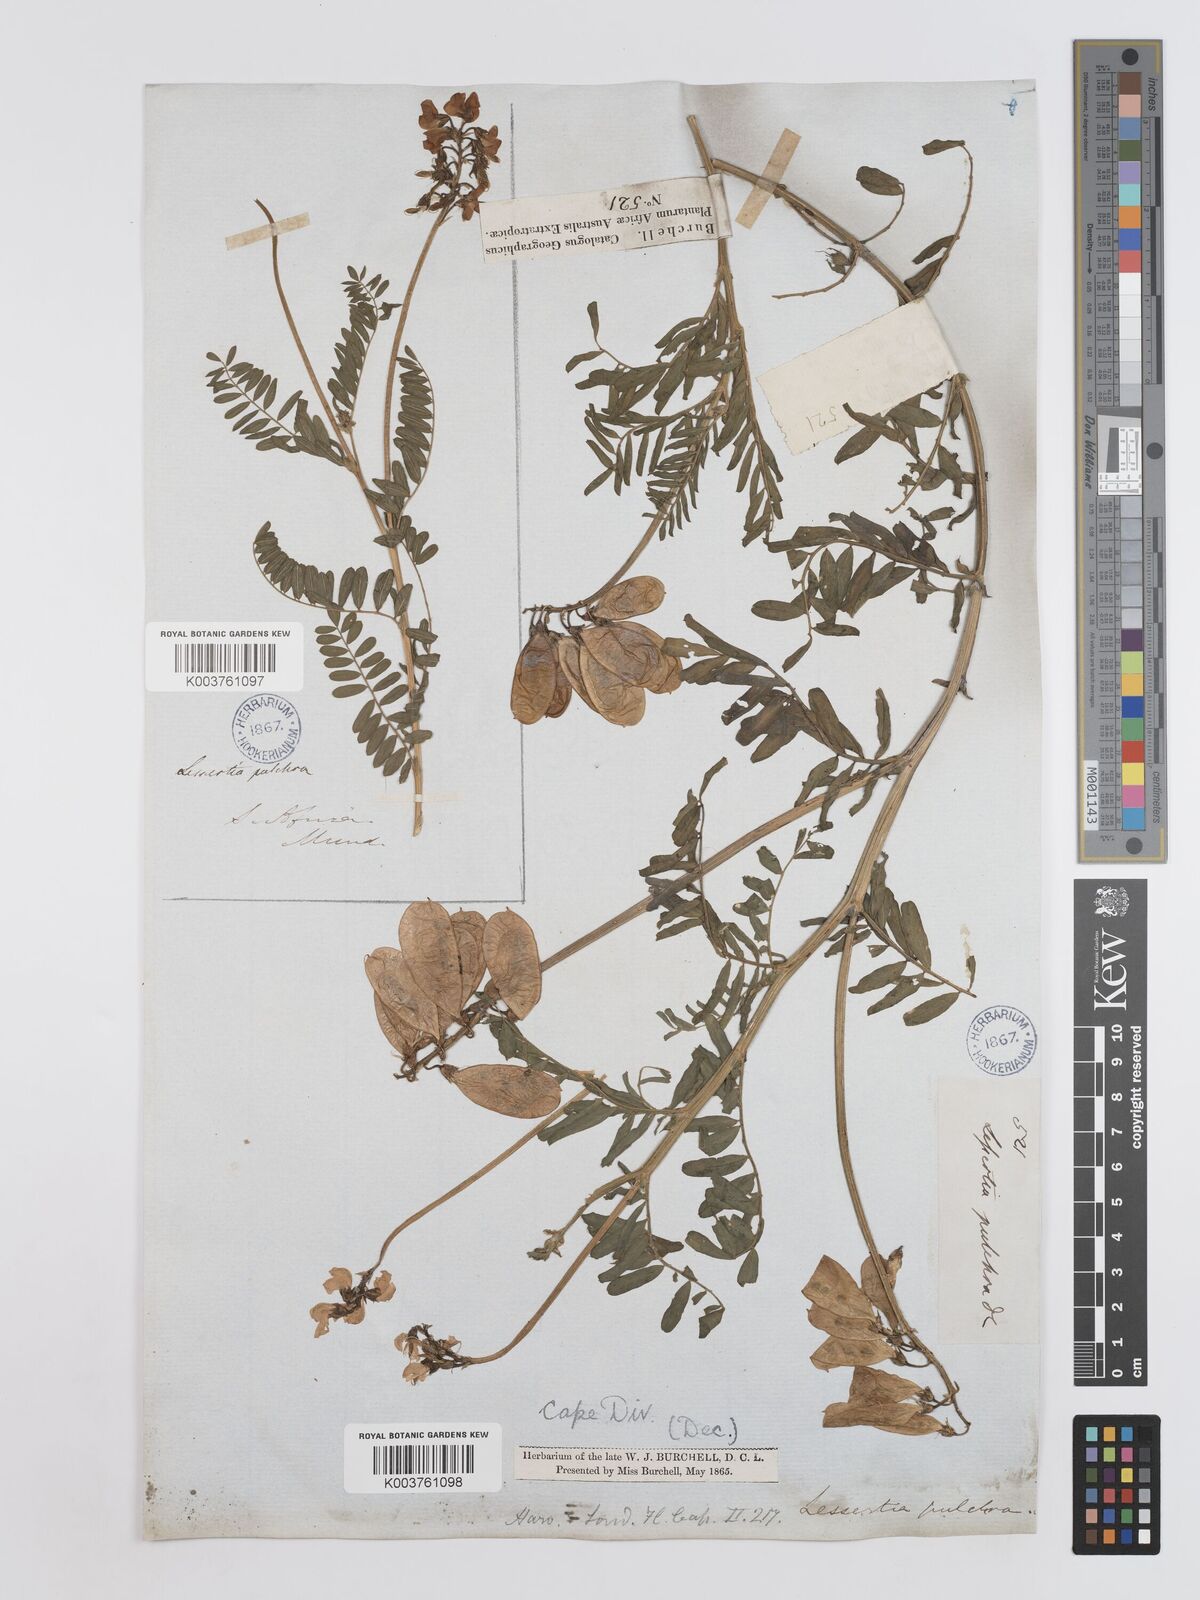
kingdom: Plantae
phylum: Tracheophyta
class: Magnoliopsida
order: Fabales
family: Fabaceae
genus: Lessertia
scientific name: Lessertia capensis
